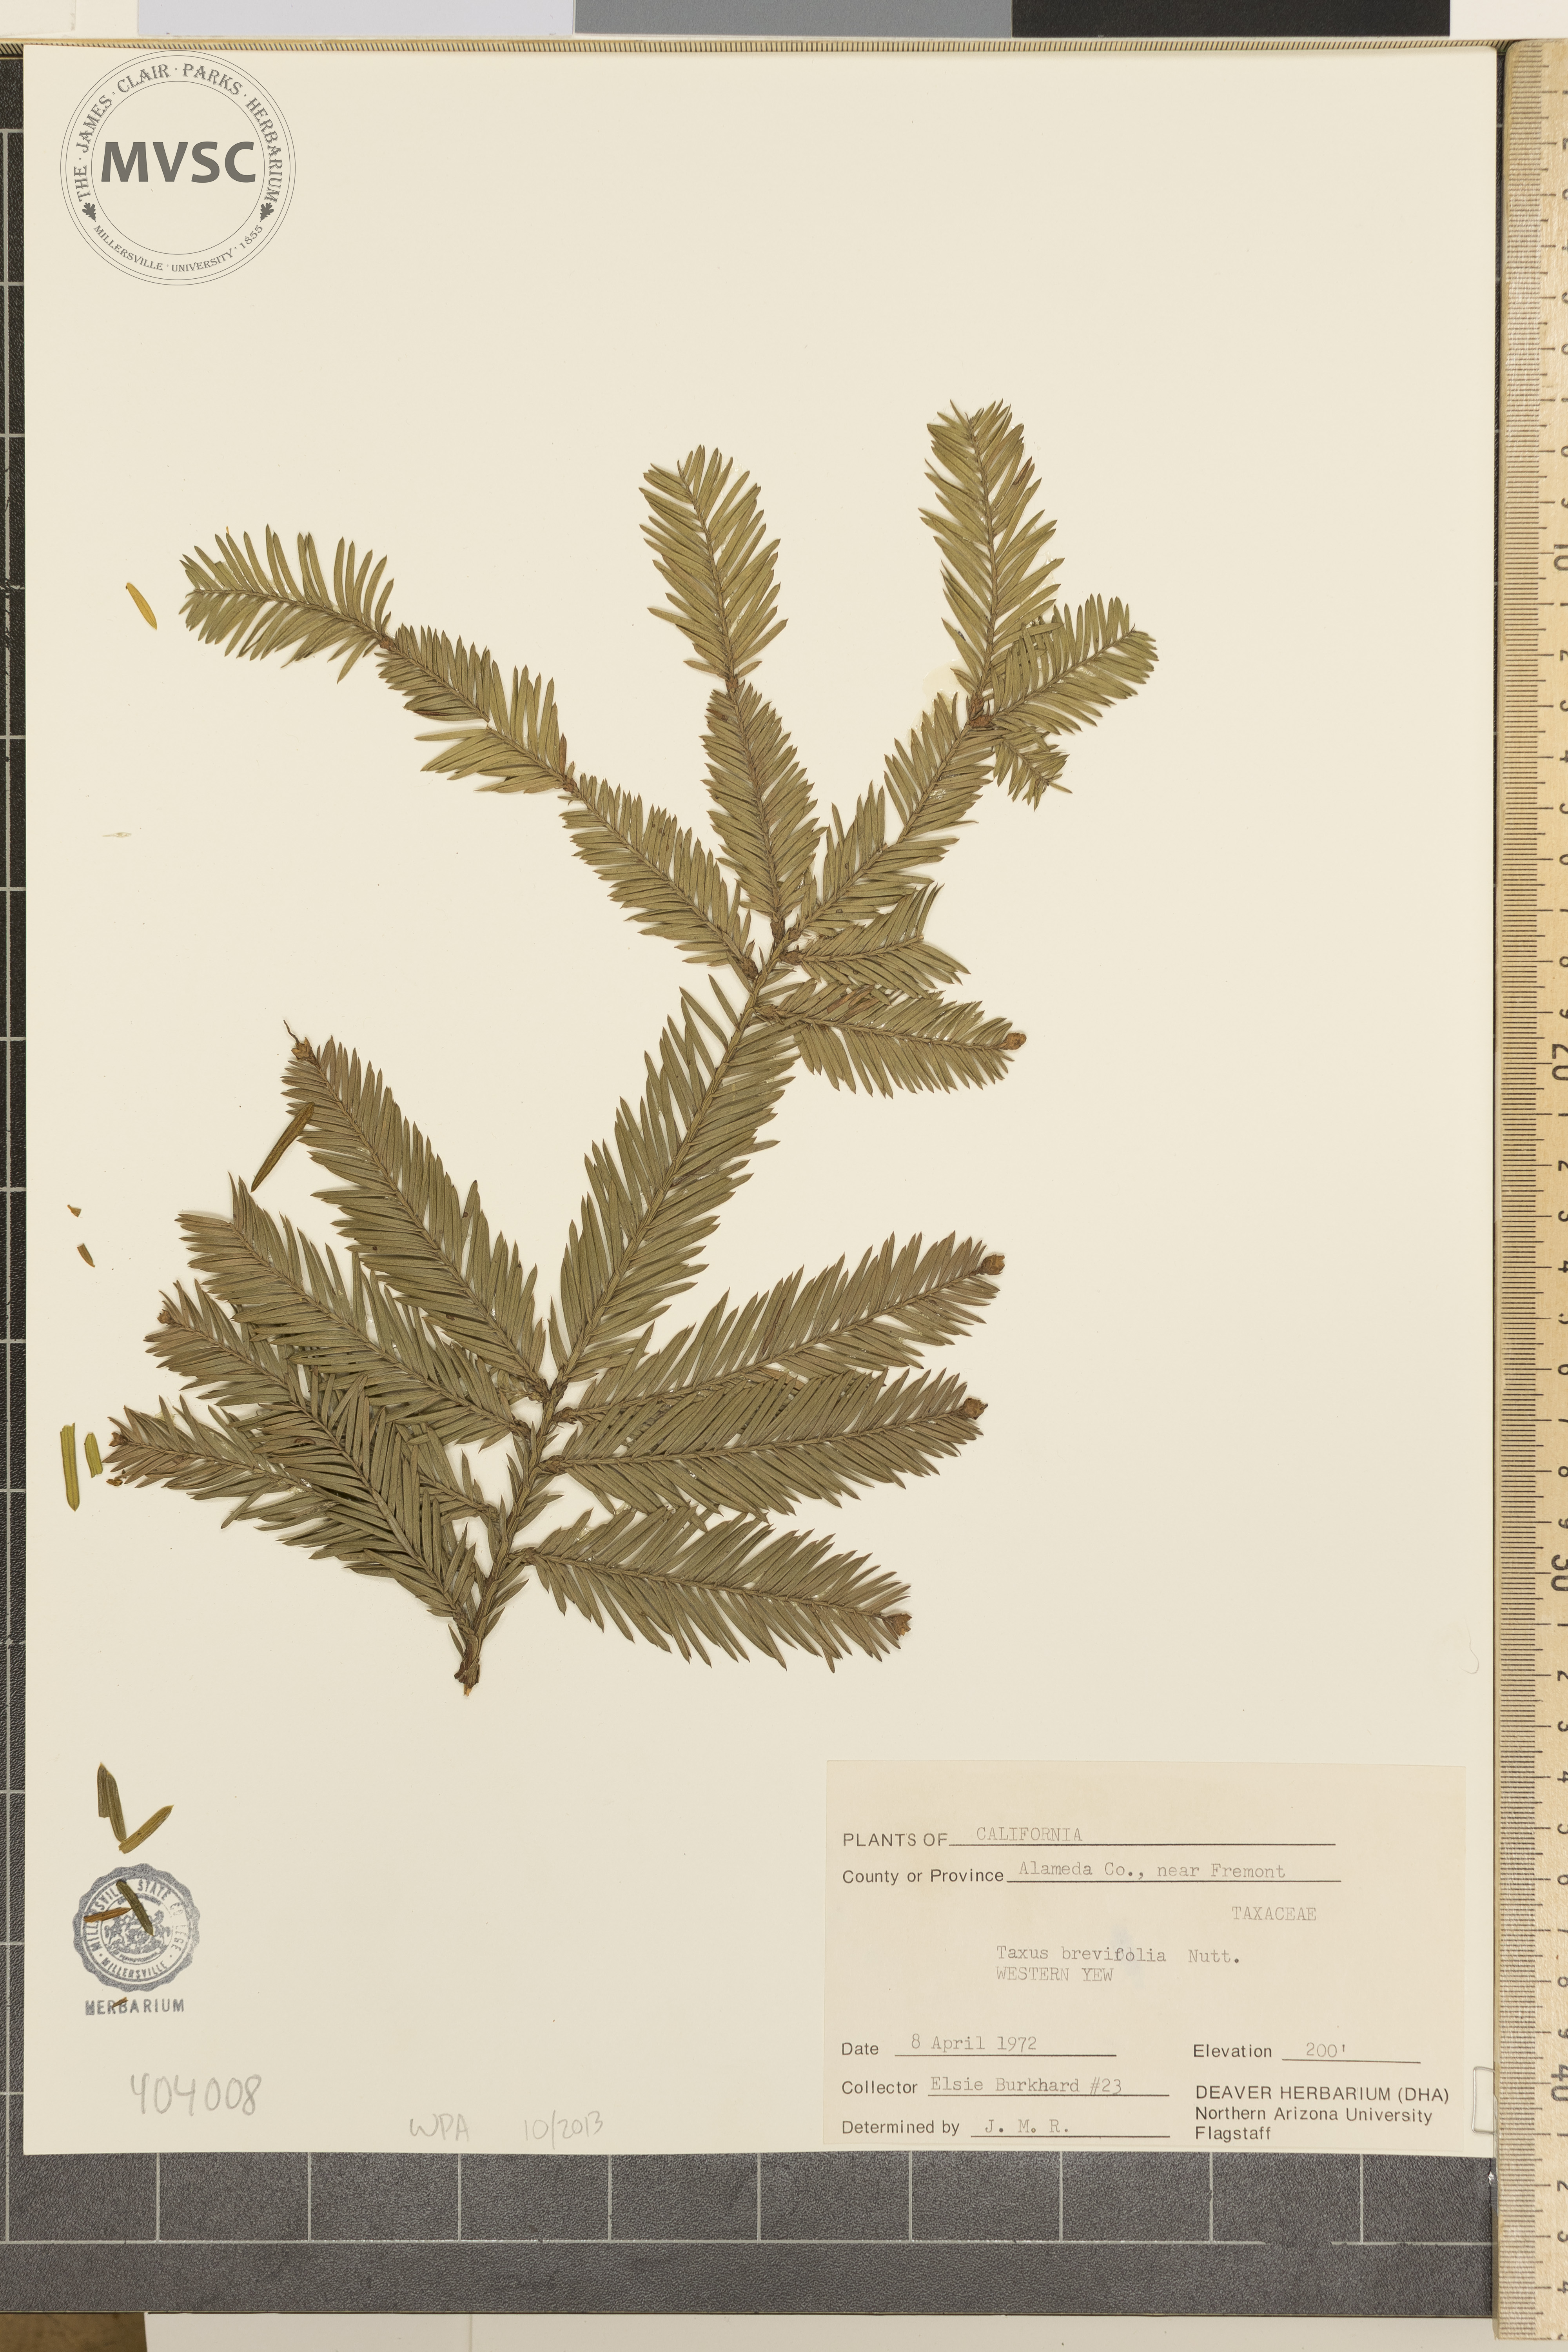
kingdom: Plantae
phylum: Tracheophyta
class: Pinopsida
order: Pinales
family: Taxaceae
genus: Taxus
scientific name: Taxus brevifolia
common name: Western Yew
